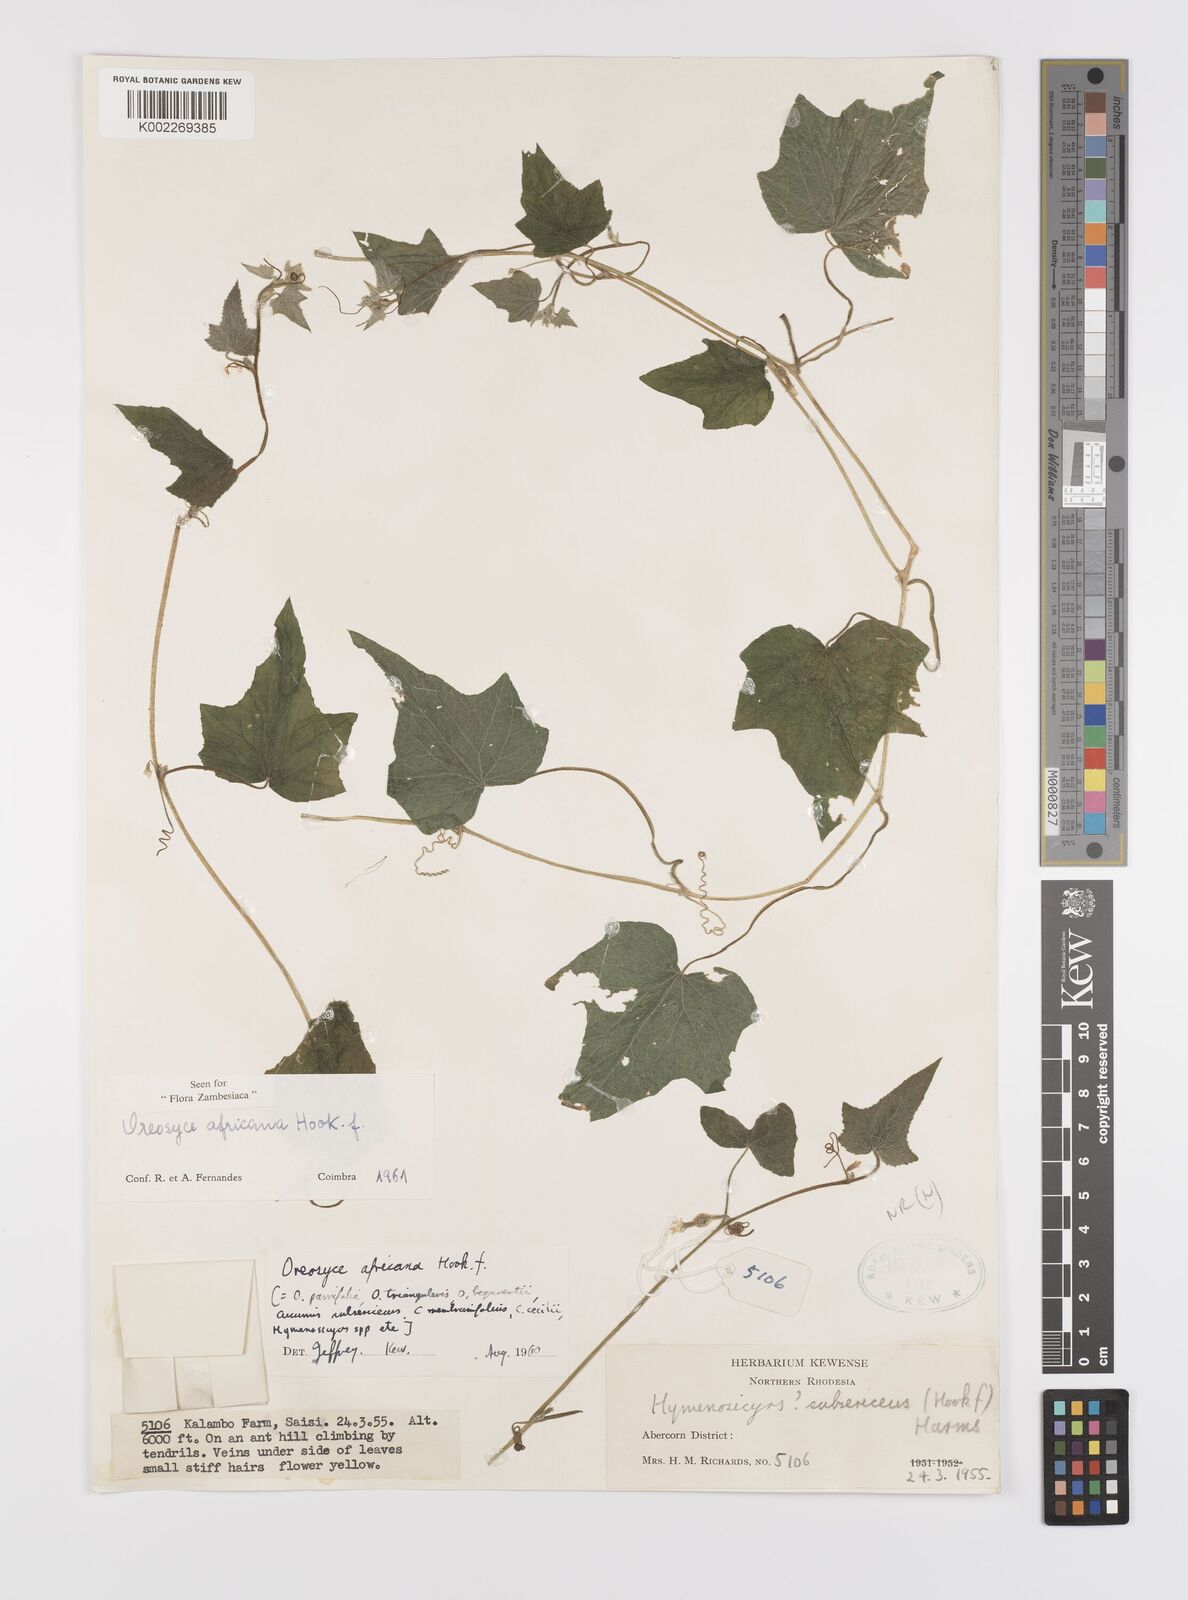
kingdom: Plantae
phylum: Tracheophyta
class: Magnoliopsida
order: Cucurbitales
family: Cucurbitaceae
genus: Cucumis
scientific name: Cucumis oreosyce
